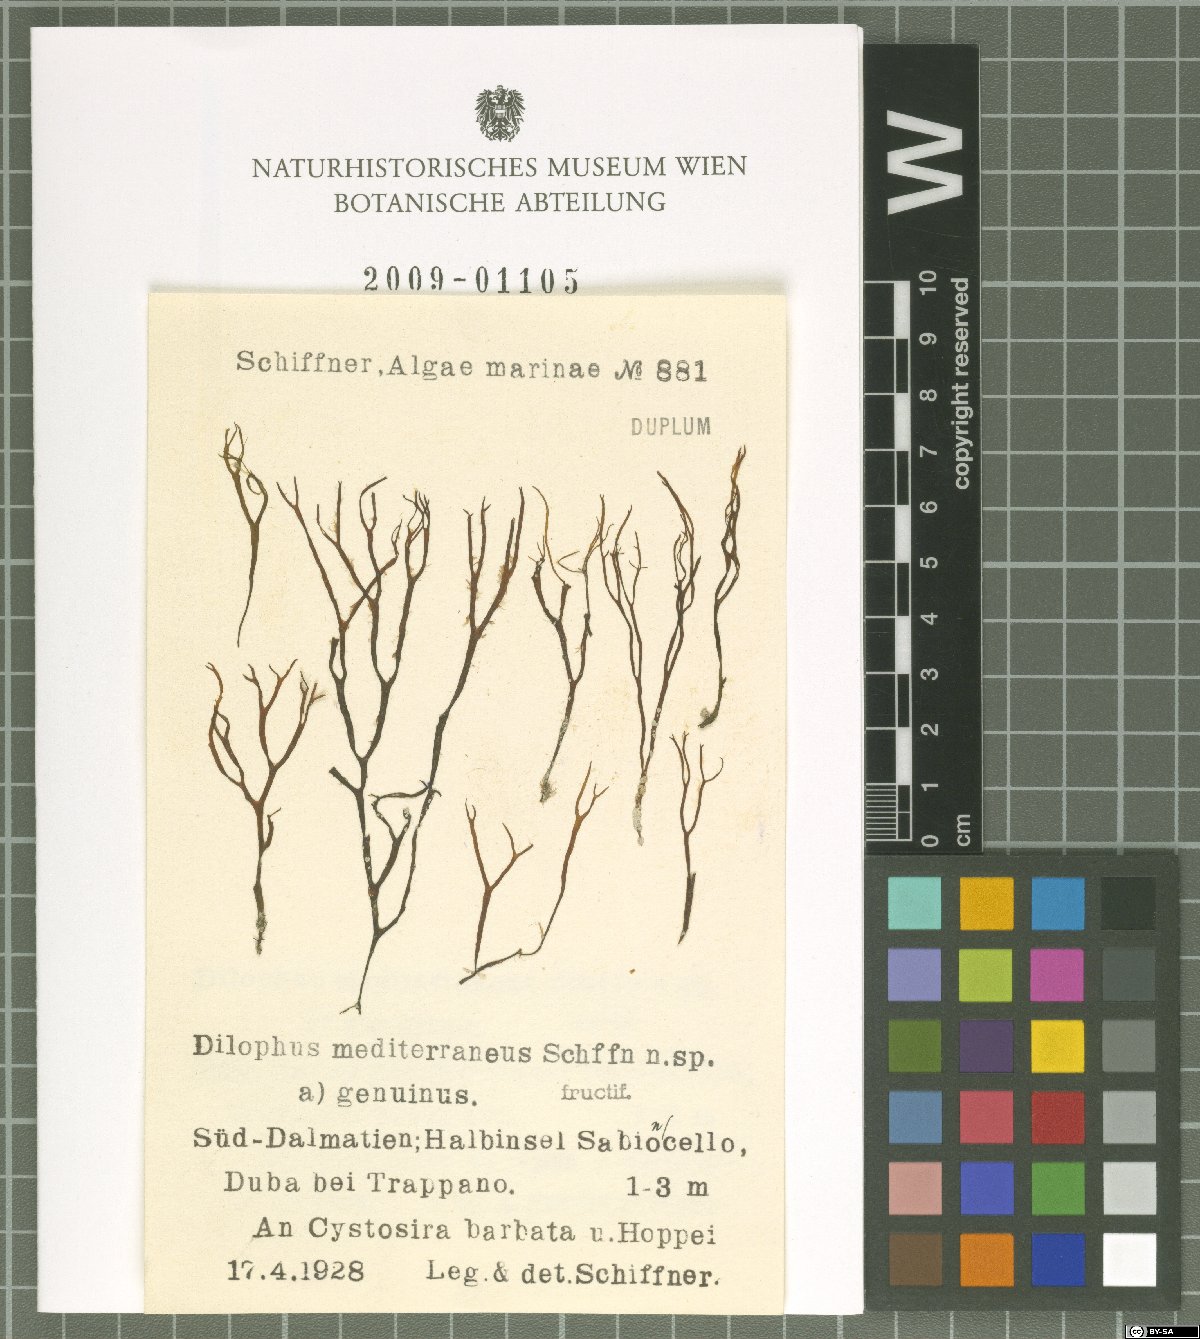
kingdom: Chromista
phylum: Ochrophyta
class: Phaeophyceae
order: Dictyotales
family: Dictyotaceae
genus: Dictyota
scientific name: Dictyota
